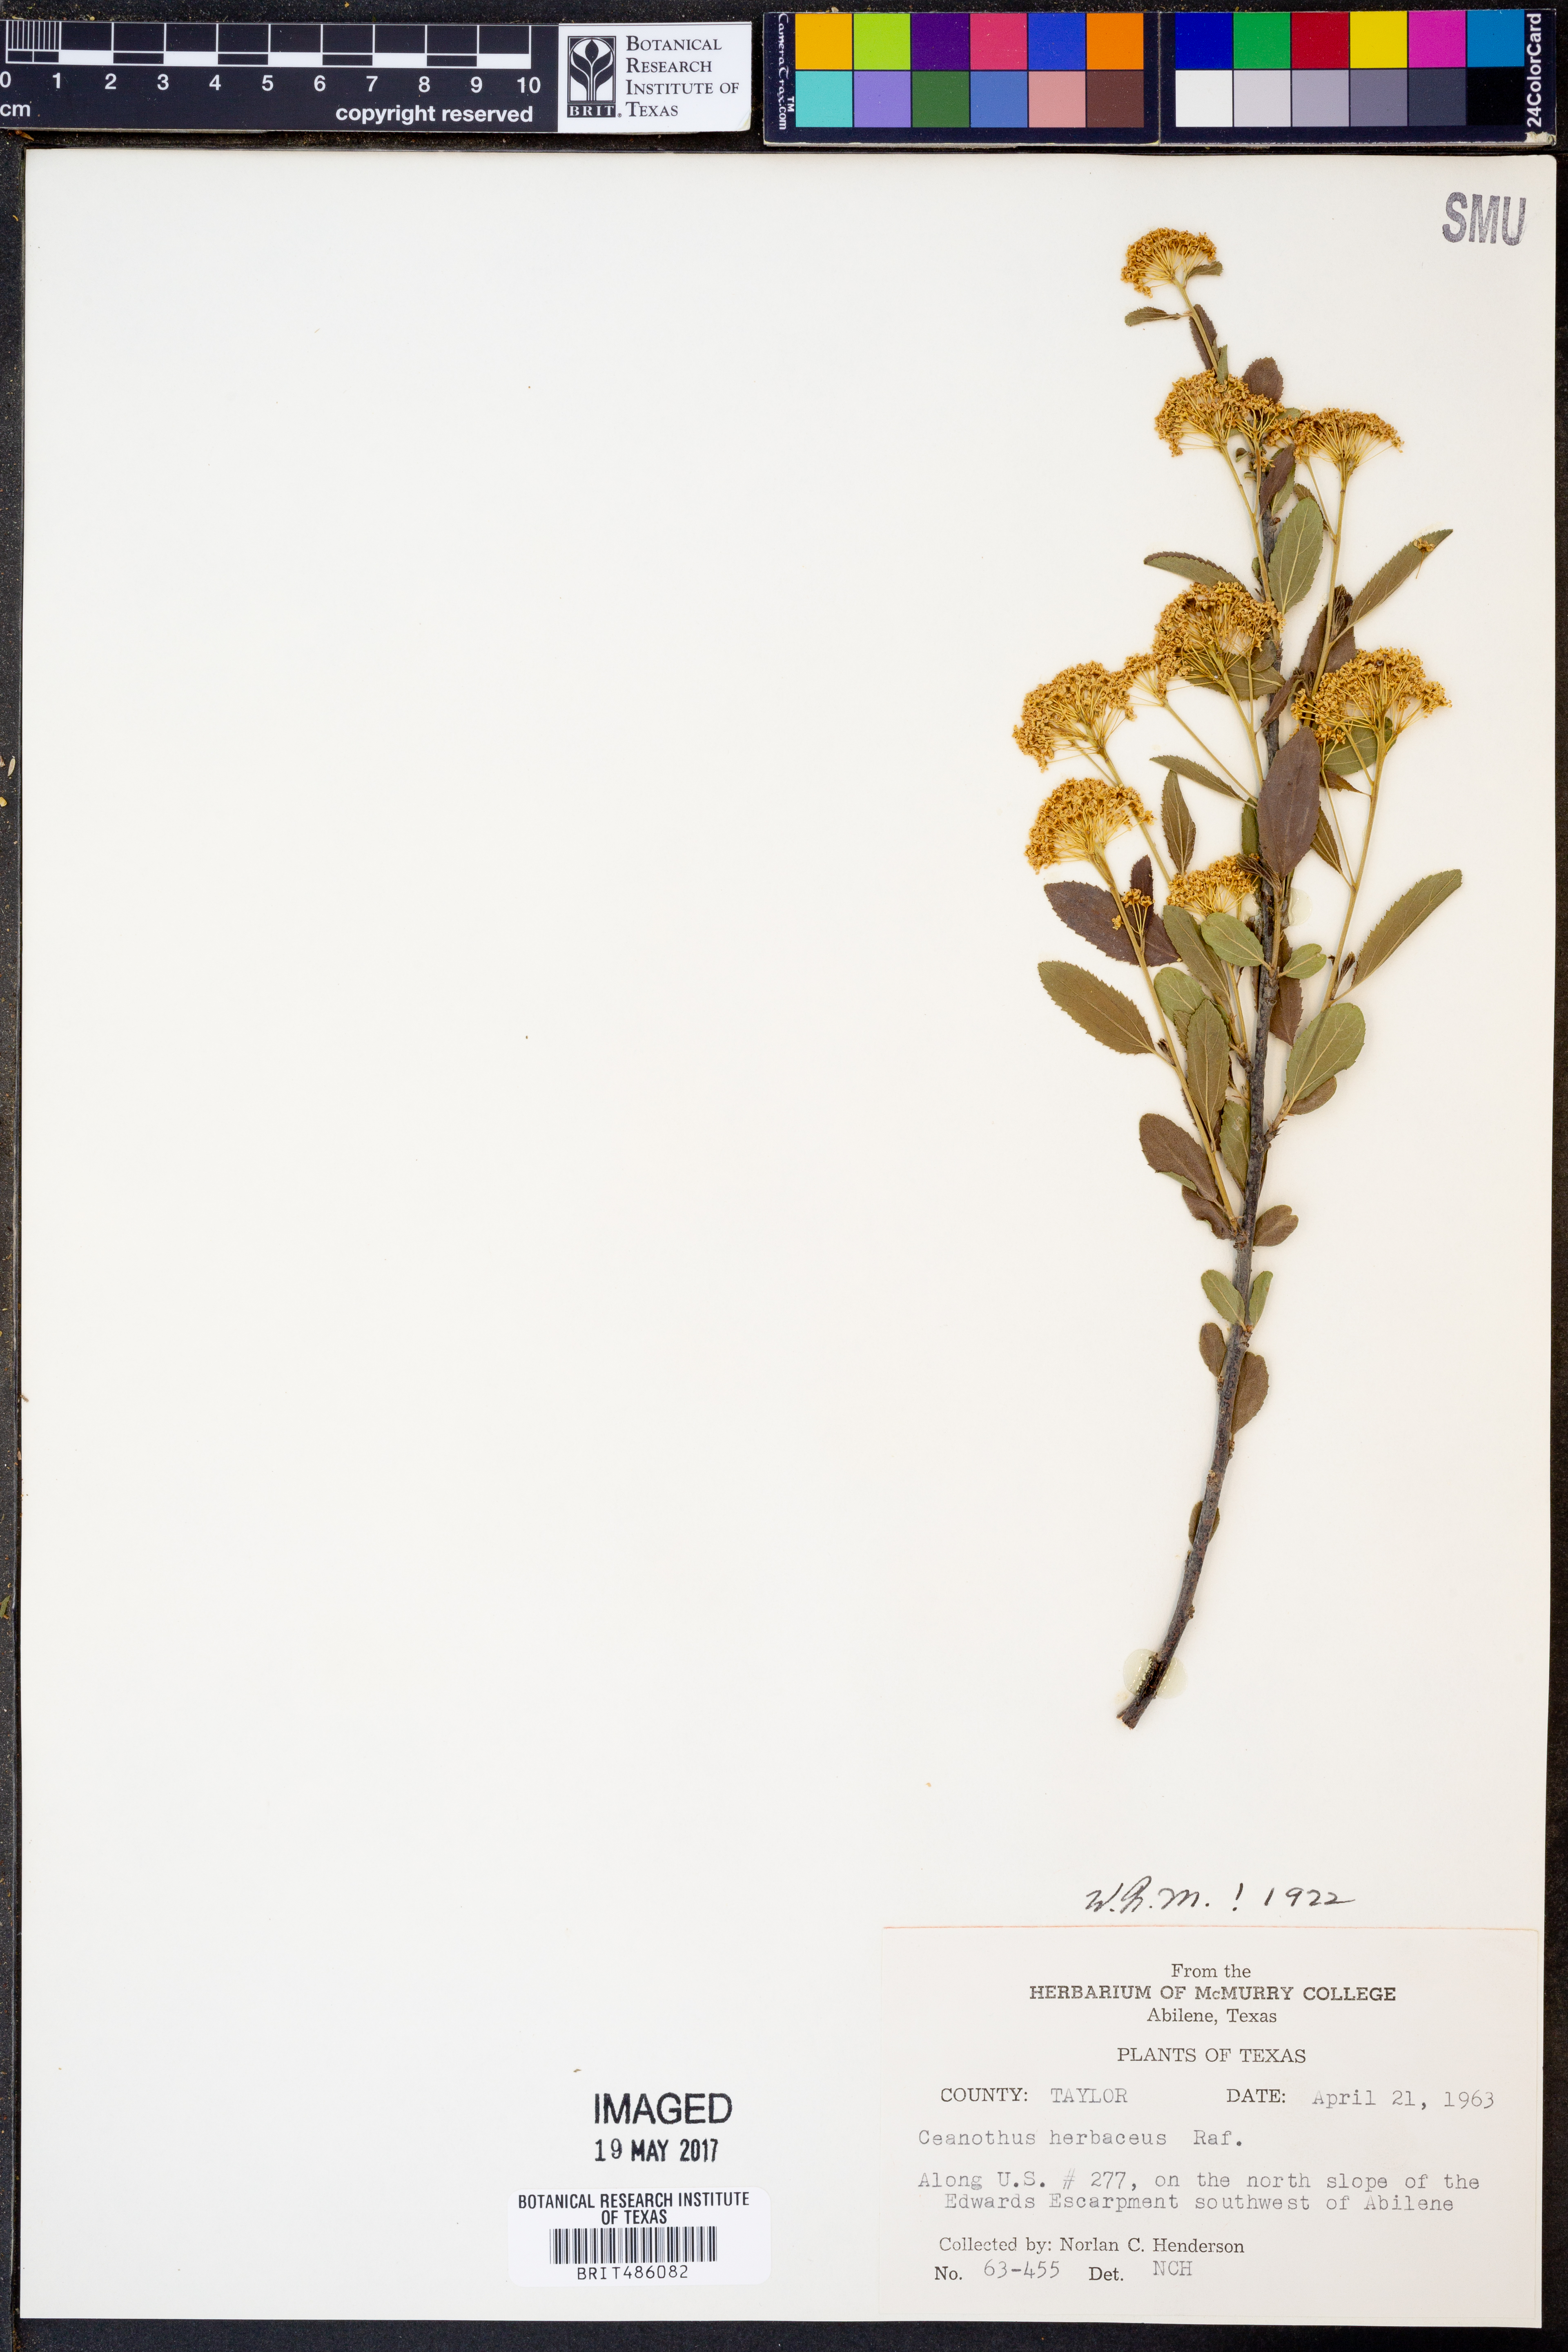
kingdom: Plantae
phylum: Tracheophyta
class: Magnoliopsida
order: Rosales
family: Rhamnaceae
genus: Ceanothus
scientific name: Ceanothus herbaceus
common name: Inland ceanothus
